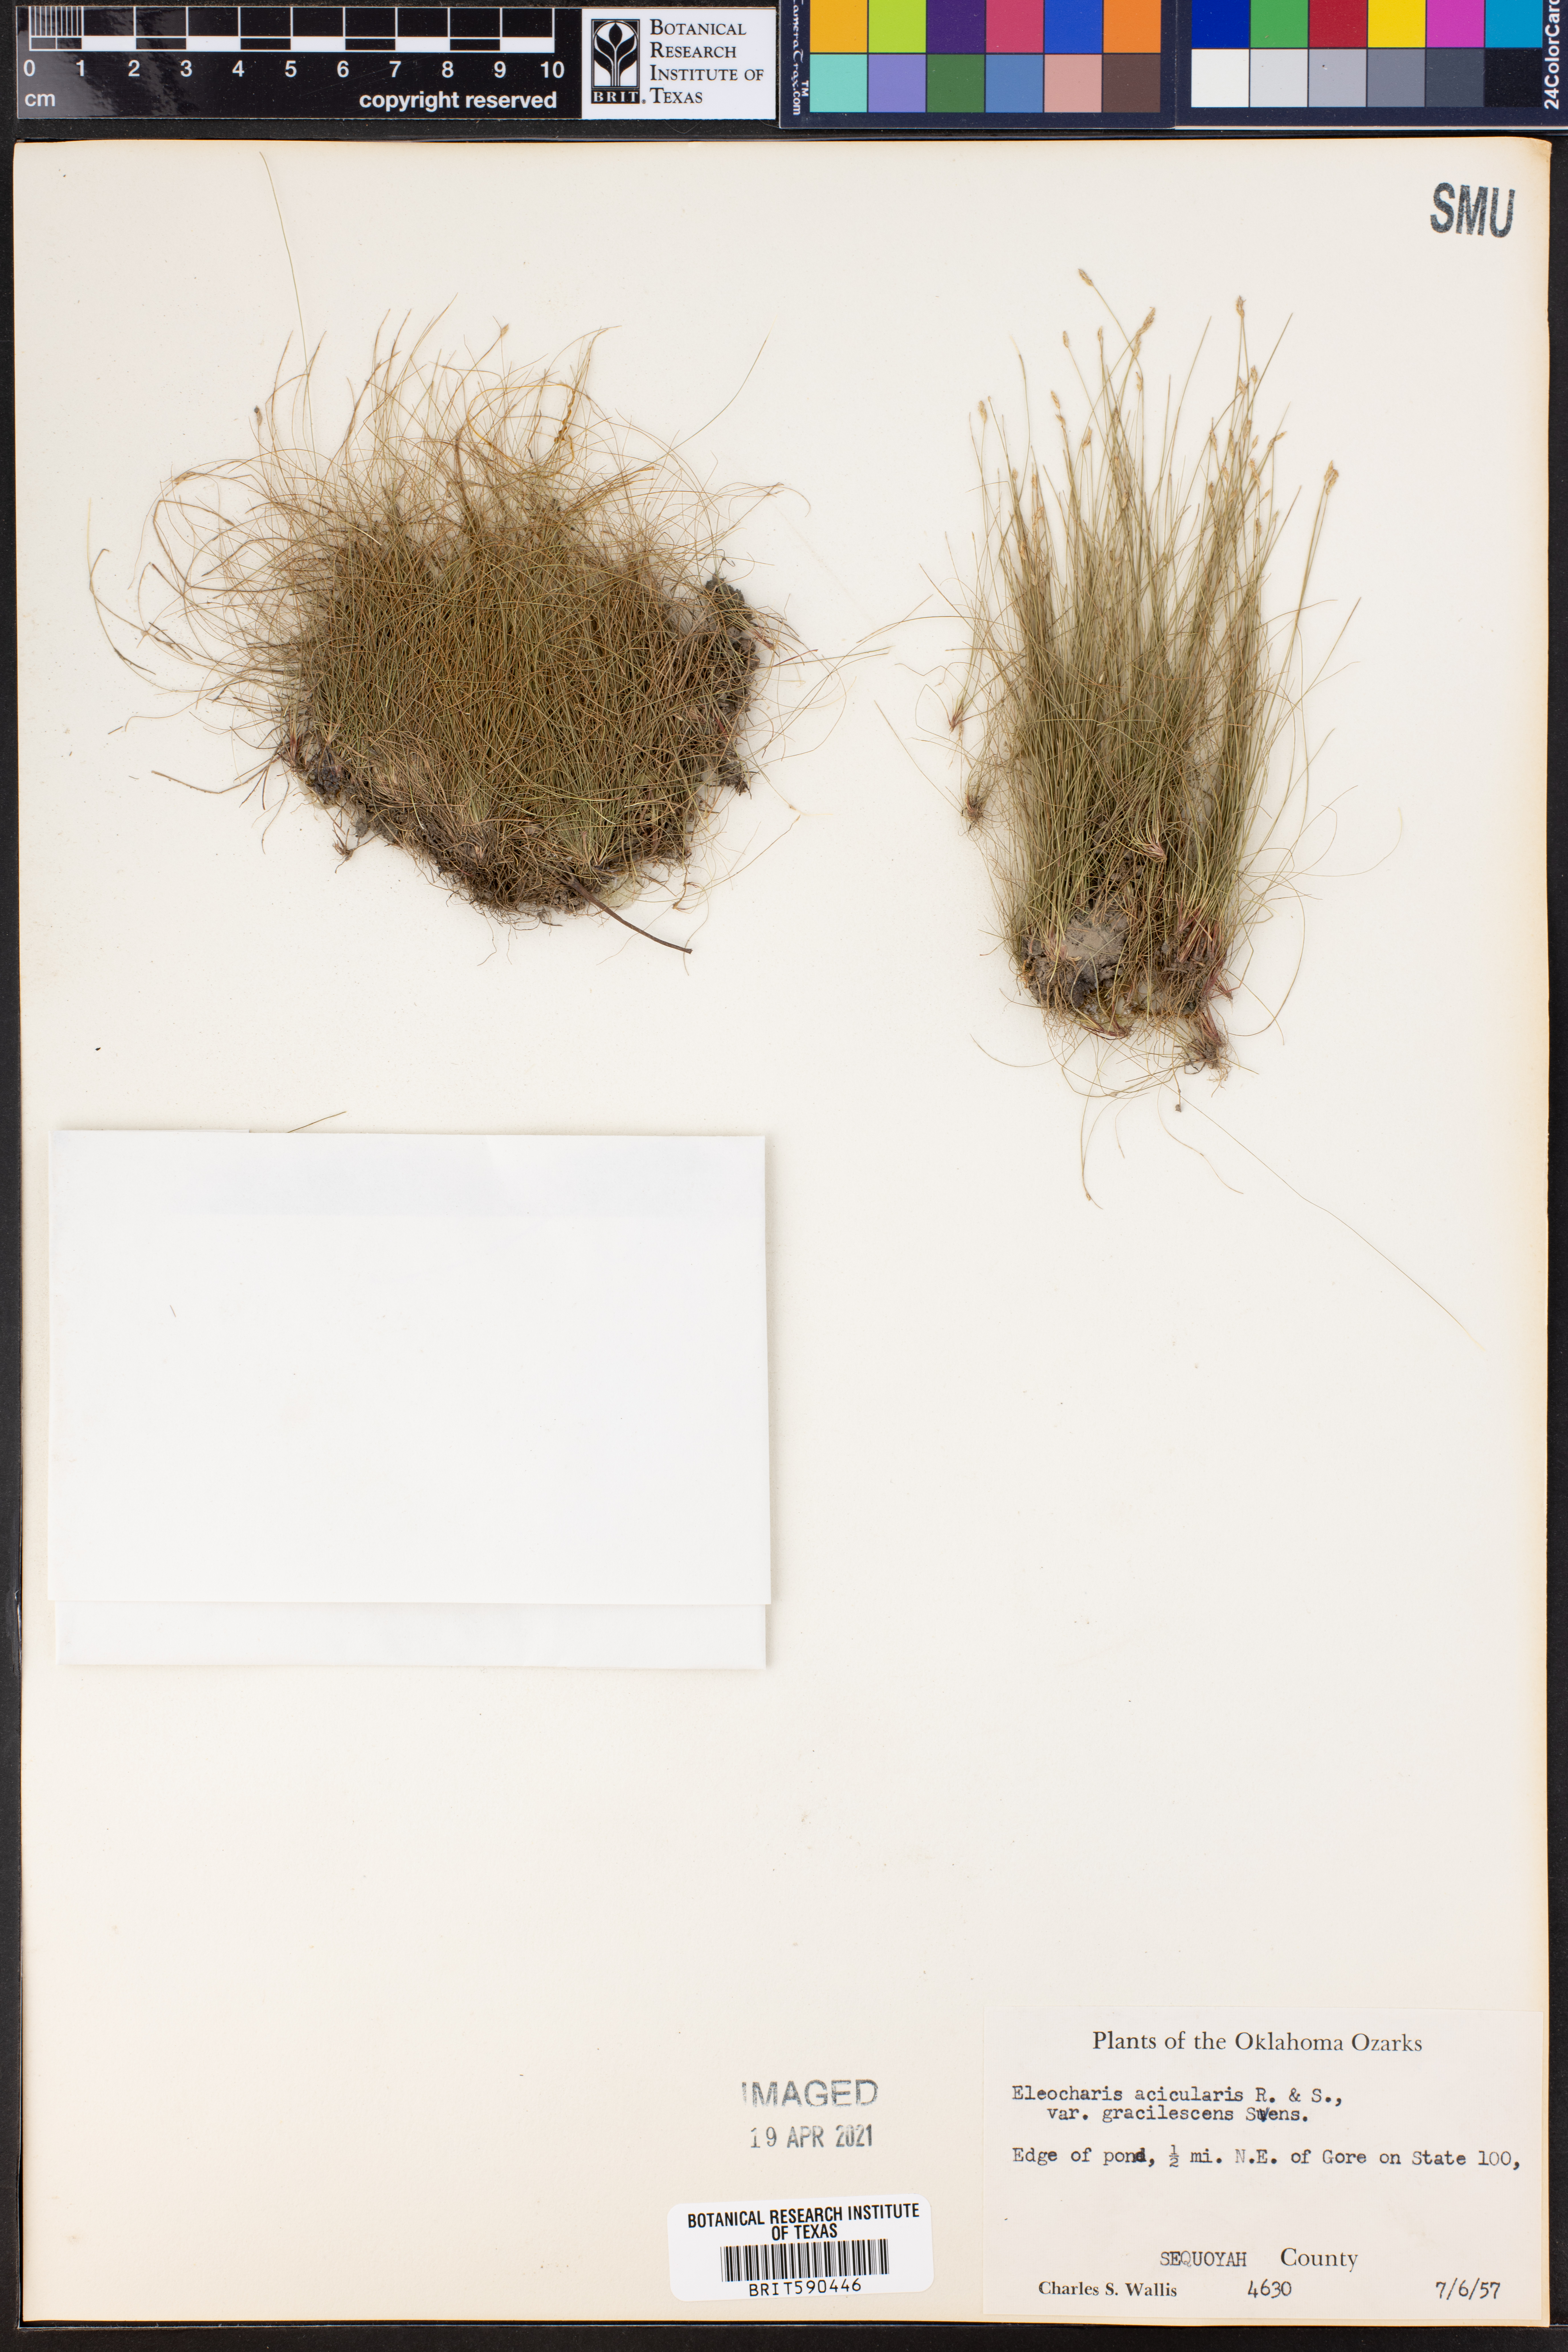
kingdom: Plantae
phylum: Tracheophyta
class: Liliopsida
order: Poales
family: Cyperaceae
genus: Eleocharis
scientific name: Eleocharis acicularis
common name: Needle spike-rush
